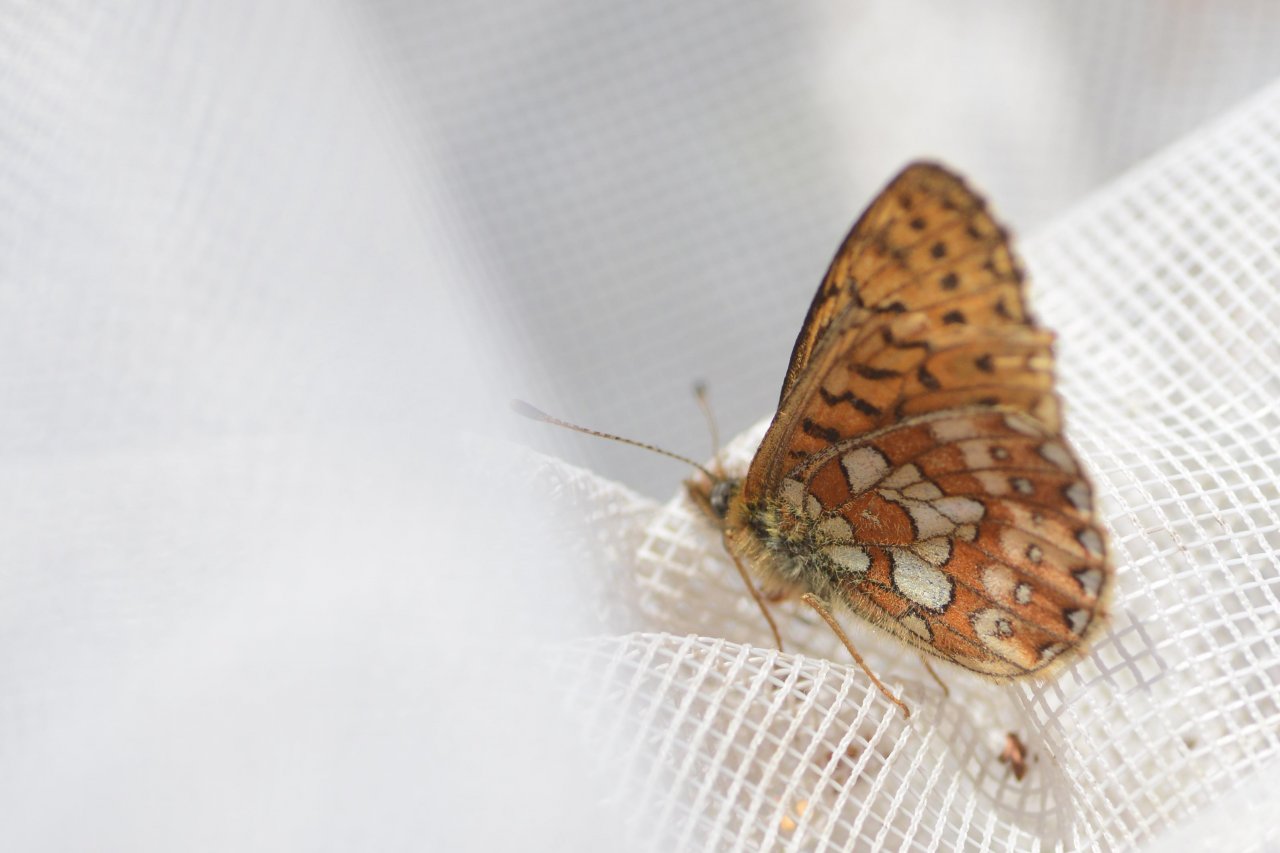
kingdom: Animalia
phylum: Arthropoda
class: Insecta
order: Lepidoptera
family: Nymphalidae
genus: Boloria
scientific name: Boloria eunomia
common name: Bog Fritillary
